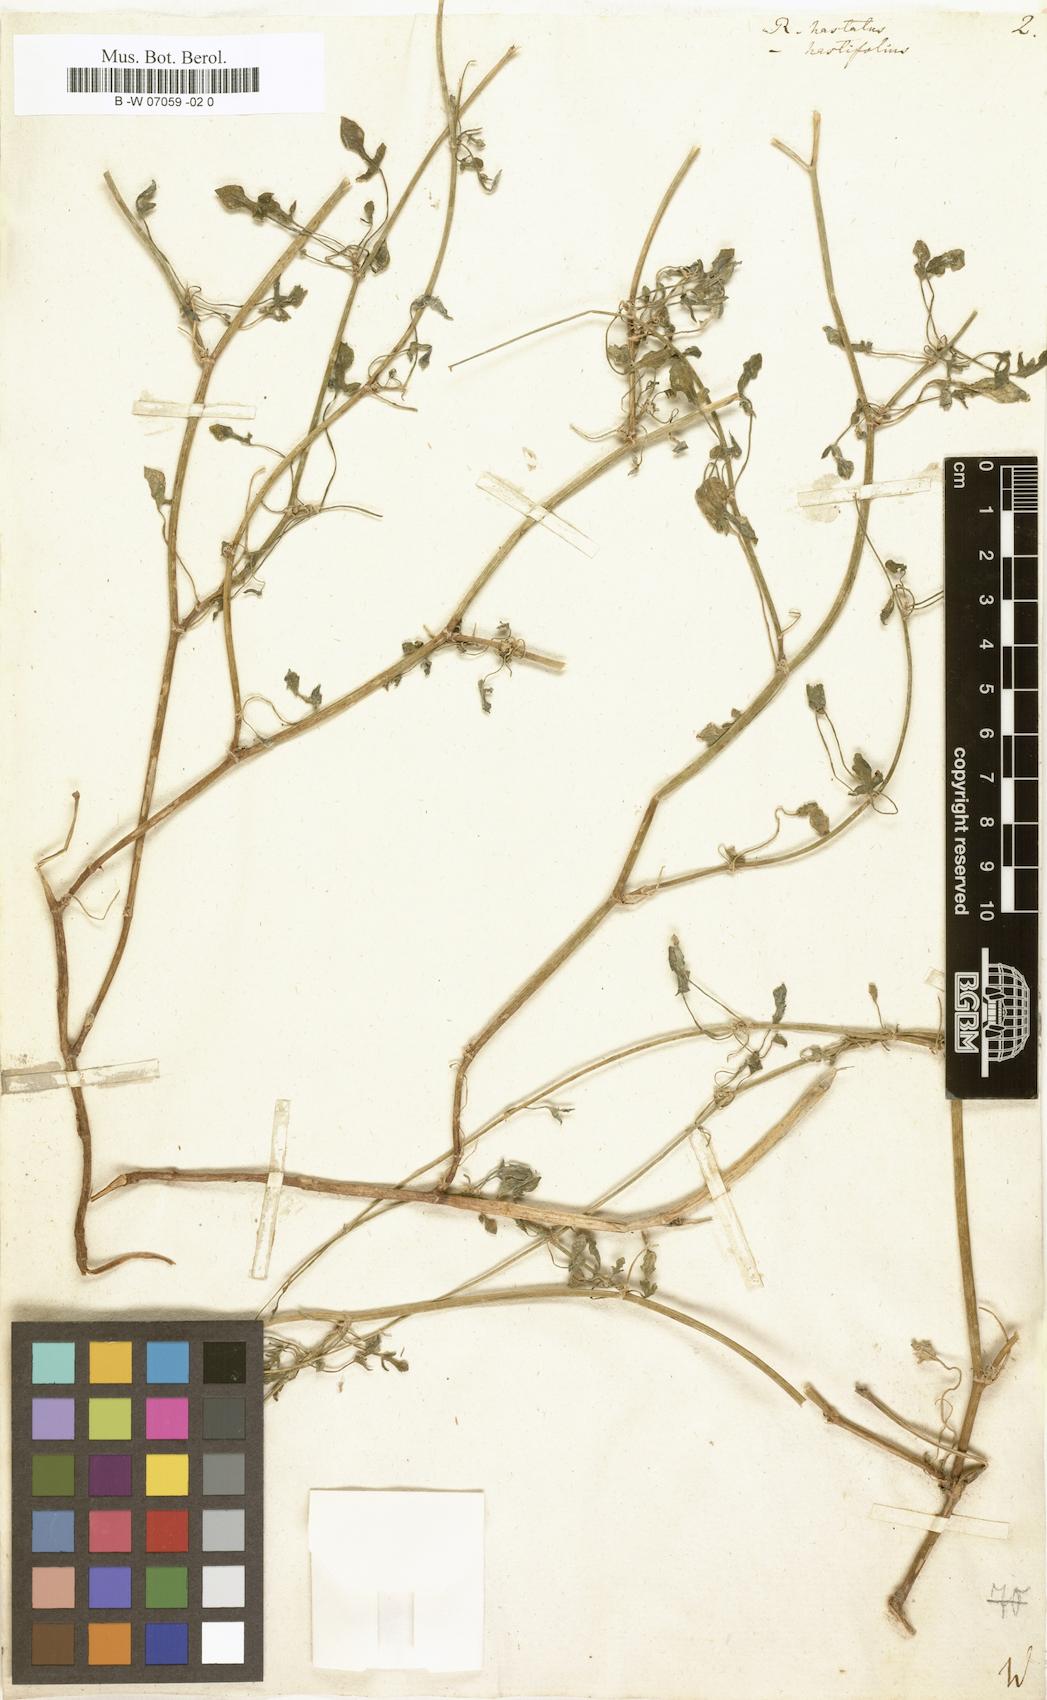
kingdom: Plantae
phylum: Tracheophyta
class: Magnoliopsida
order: Caryophyllales
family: Polygonaceae
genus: Rumex
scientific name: Rumex hastatus
